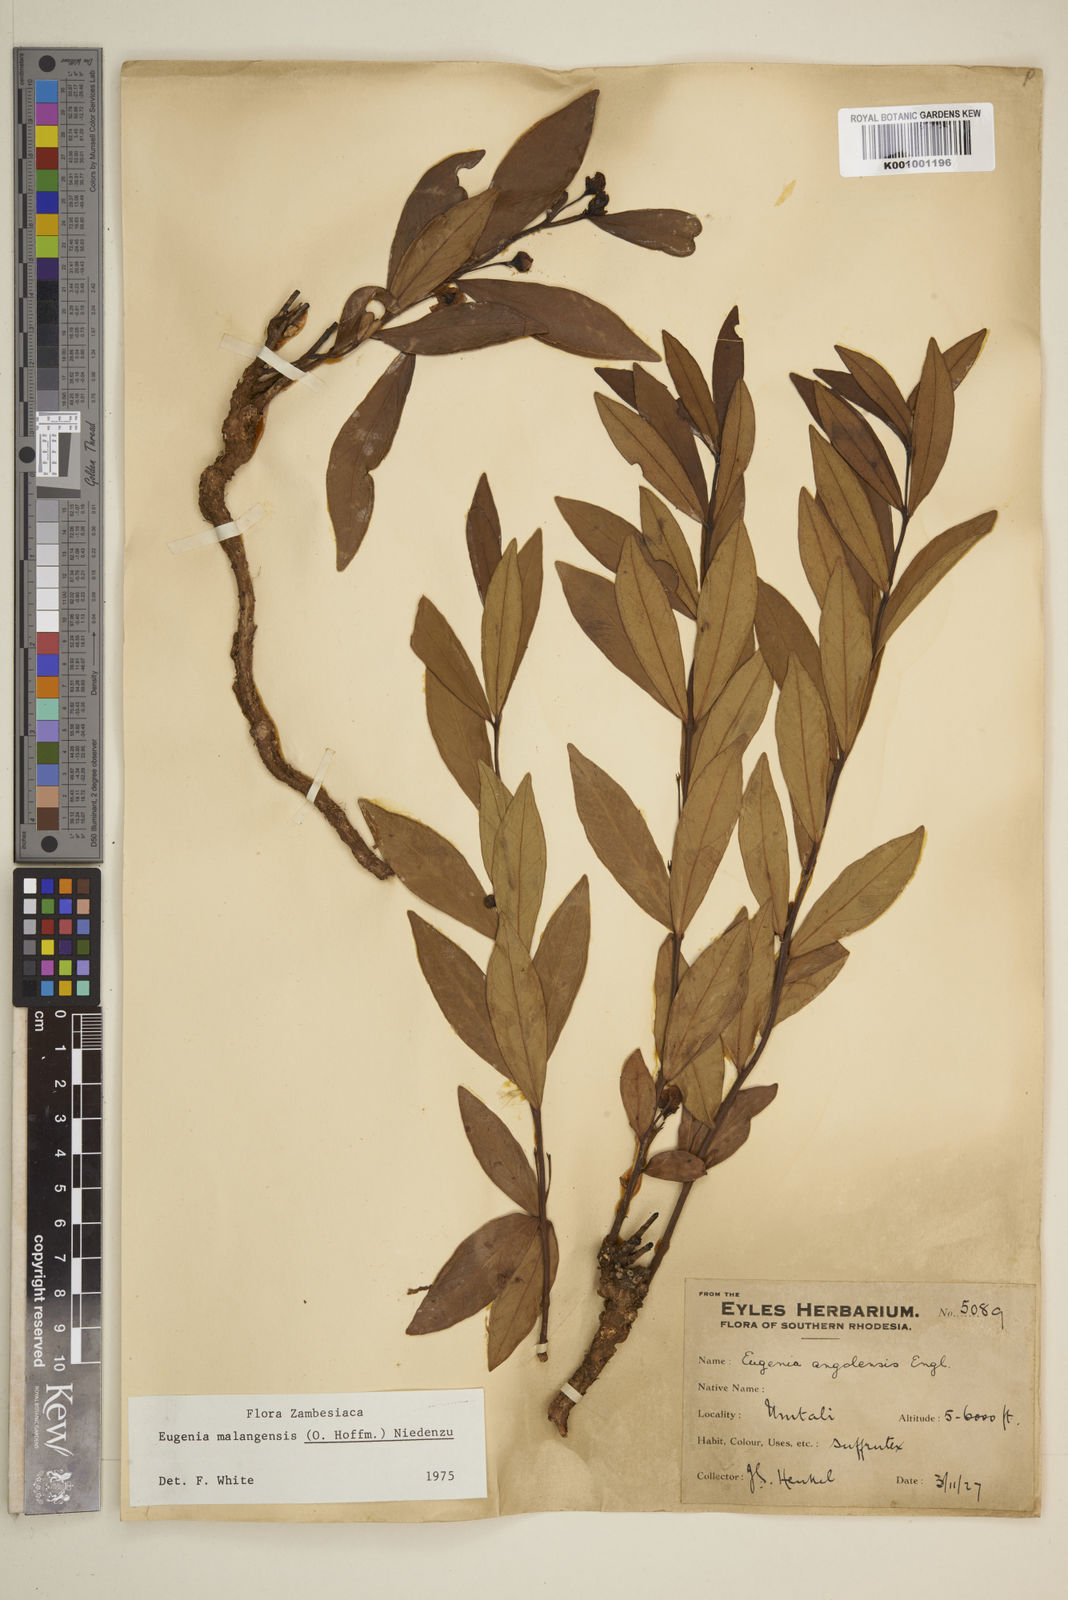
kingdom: Plantae
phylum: Tracheophyta
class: Magnoliopsida
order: Myrtales
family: Myrtaceae
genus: Eugenia
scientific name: Eugenia malangensis
